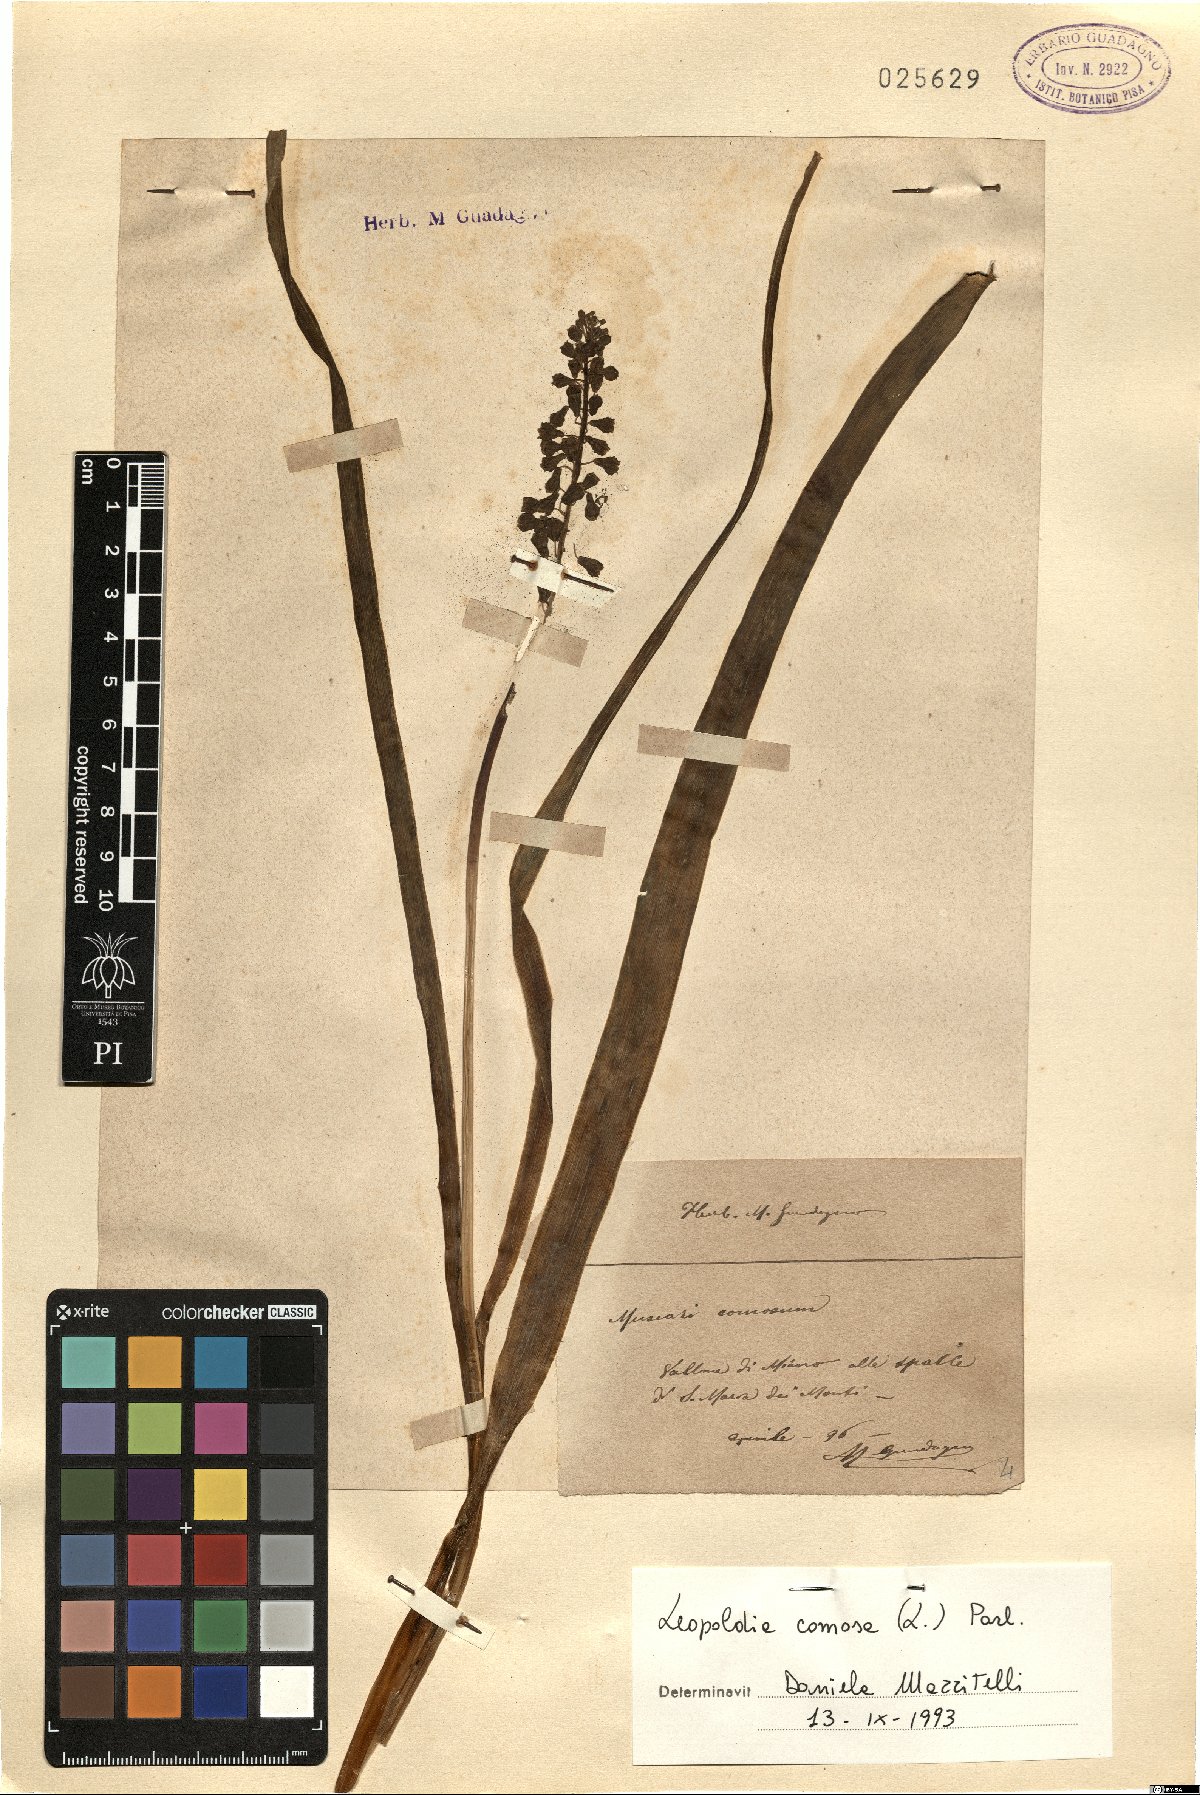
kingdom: Plantae
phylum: Tracheophyta
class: Liliopsida
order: Asparagales
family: Asparagaceae
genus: Muscari
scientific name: Muscari comosum
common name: Tassel hyacinth
